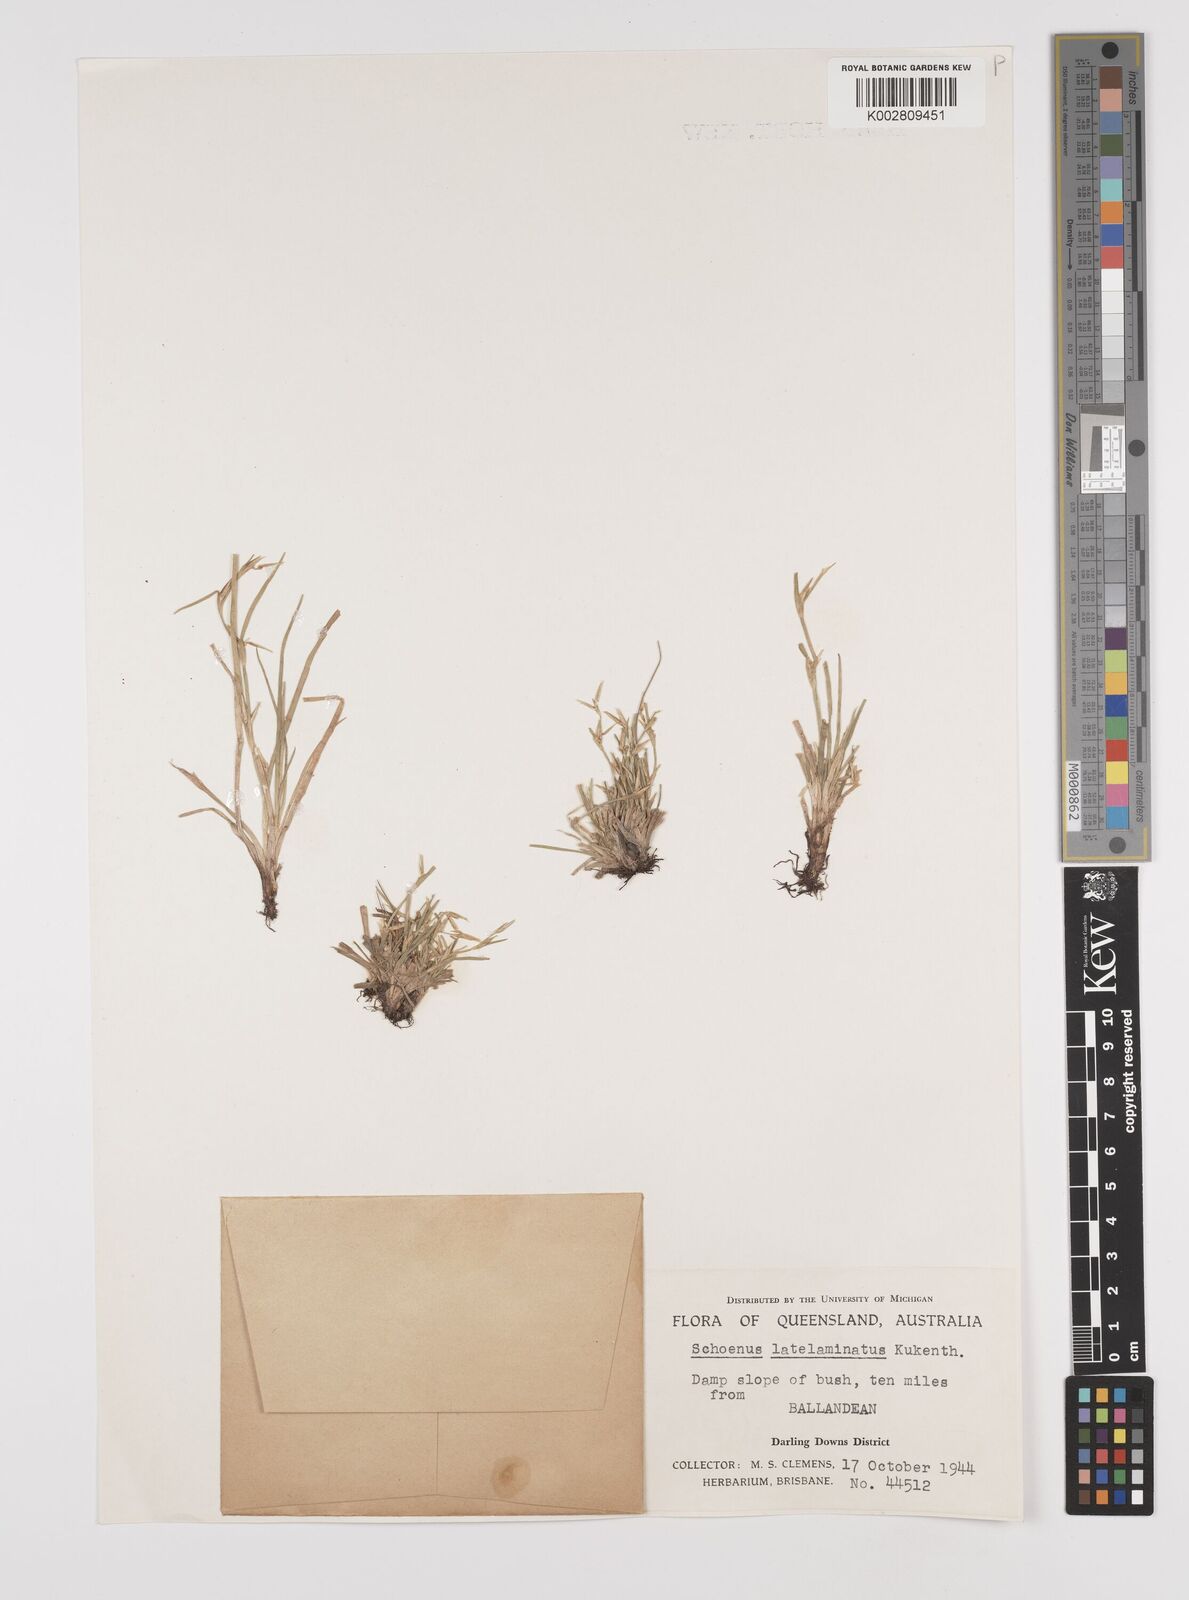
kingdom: Plantae
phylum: Tracheophyta
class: Liliopsida
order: Poales
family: Cyperaceae
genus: Schoenus
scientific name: Schoenus latelaminatus
